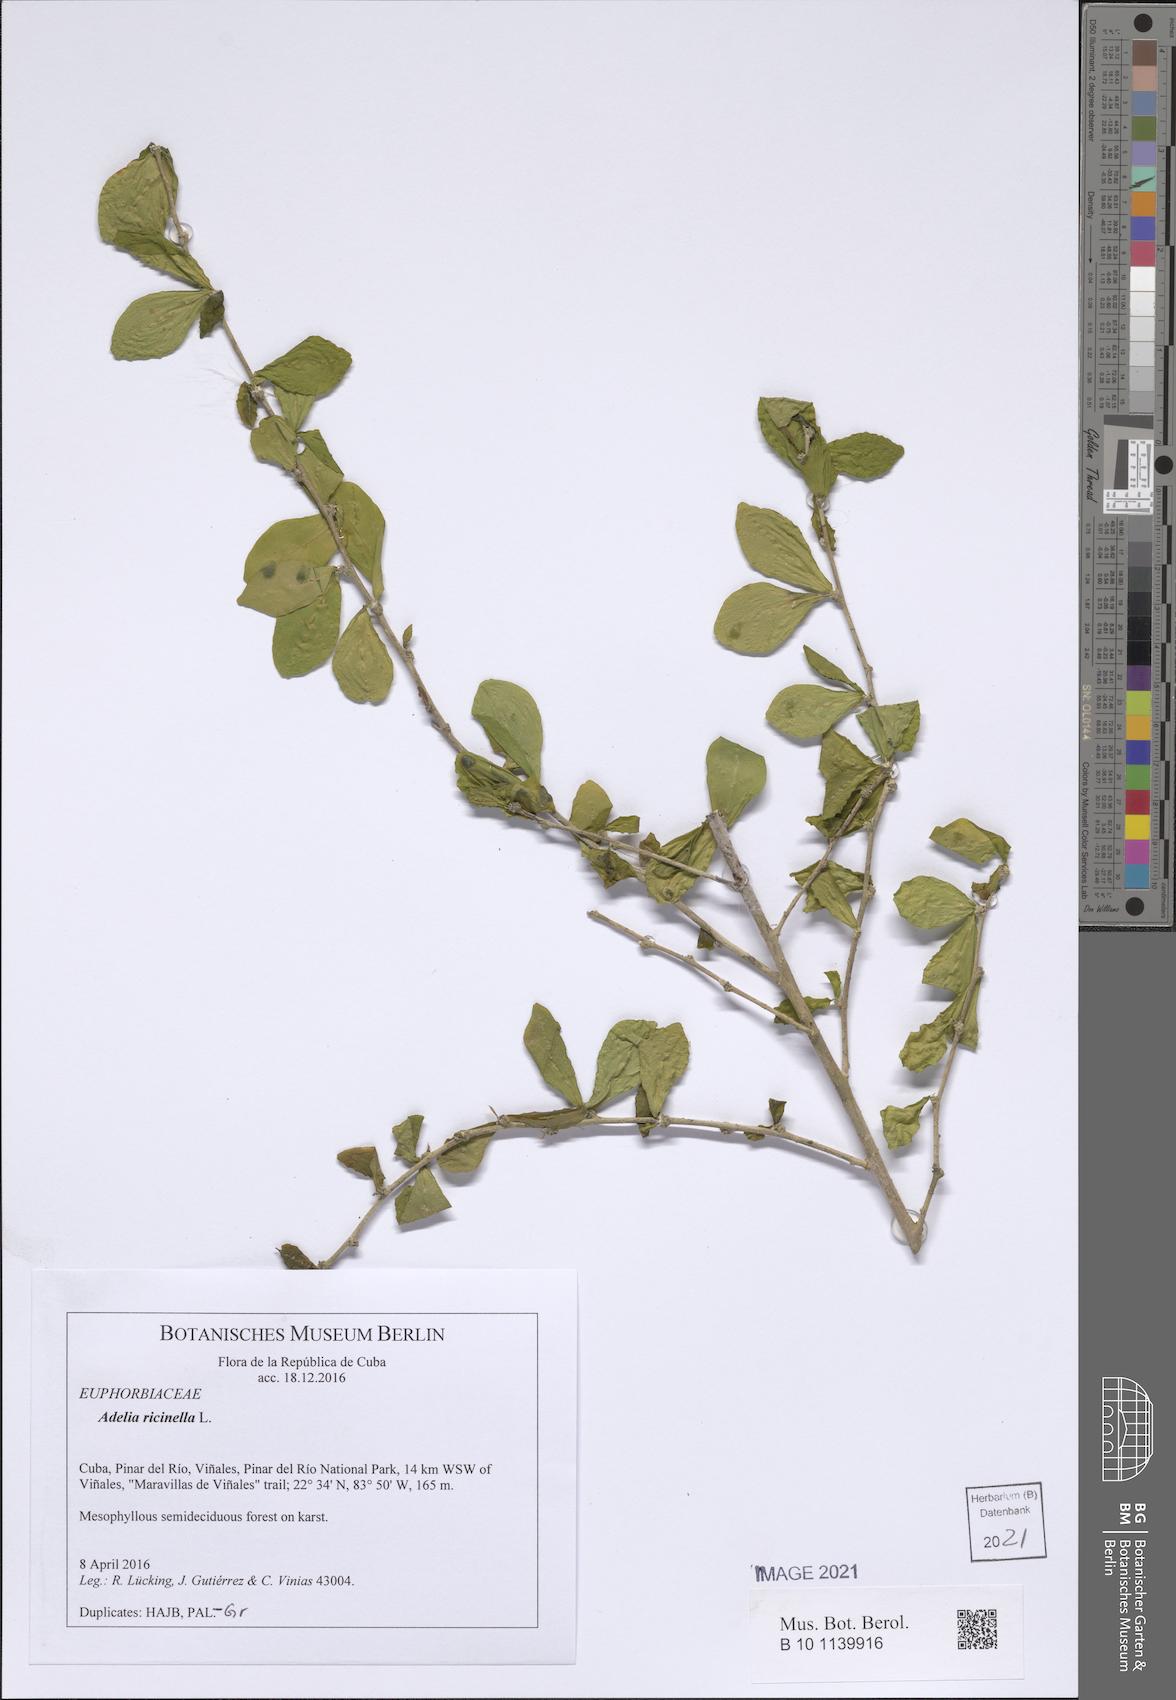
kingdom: Plantae
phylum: Tracheophyta
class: Magnoliopsida
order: Malpighiales
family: Euphorbiaceae
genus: Adelia
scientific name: Adelia ricinella
